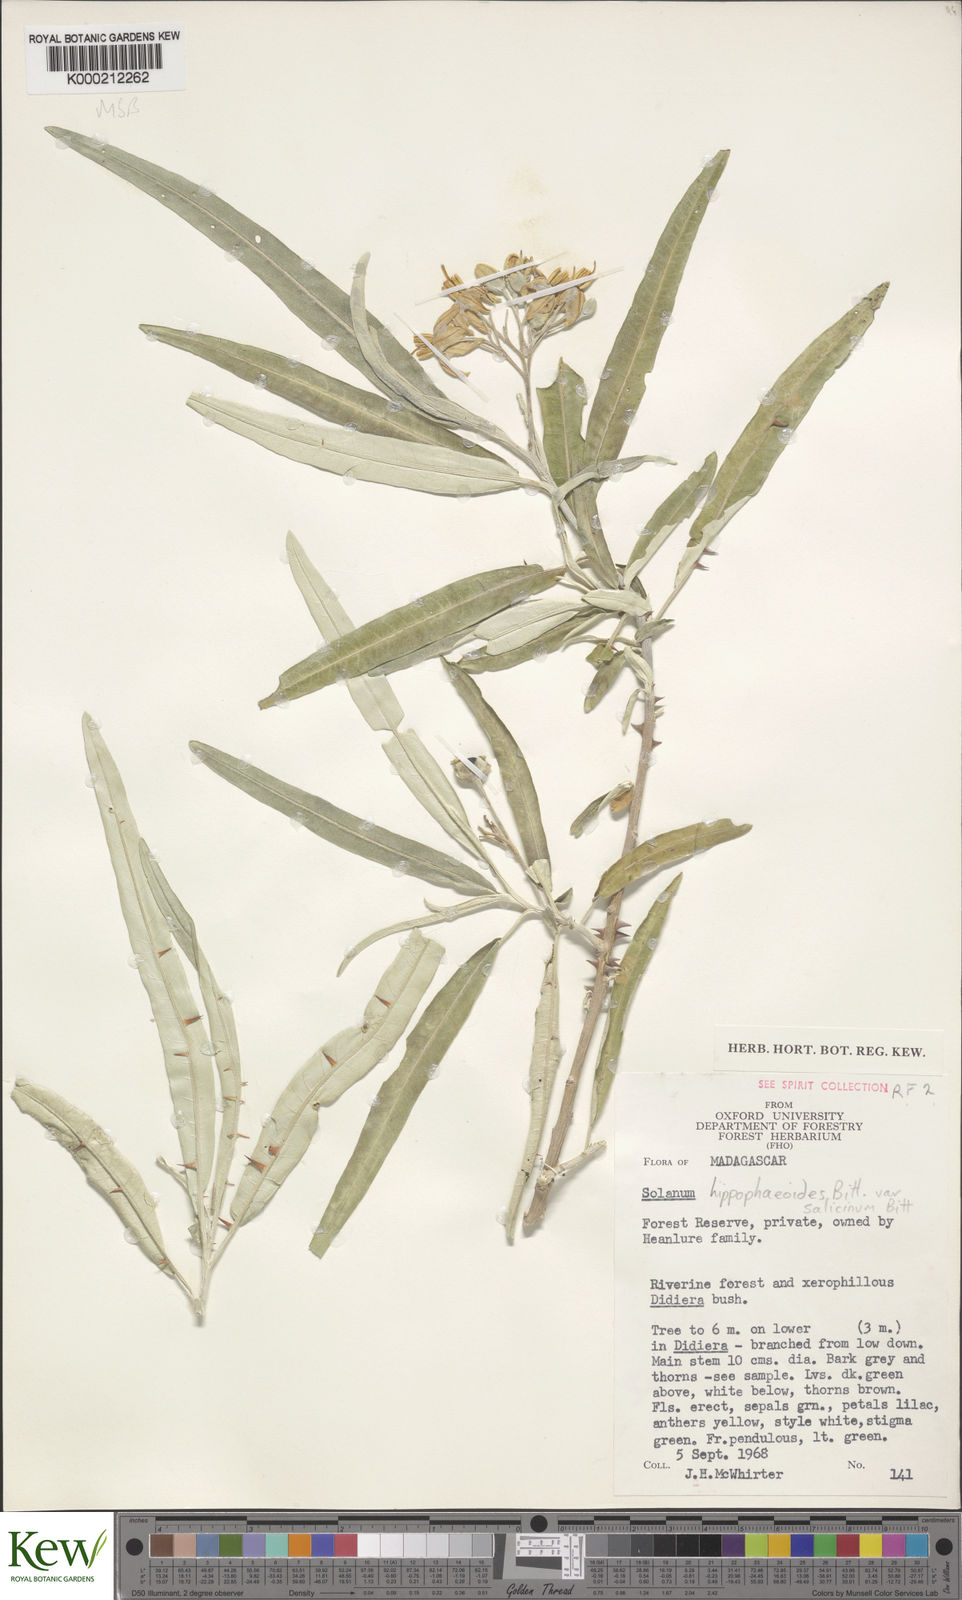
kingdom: Plantae
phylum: Tracheophyta
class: Magnoliopsida
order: Solanales
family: Solanaceae
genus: Solanum
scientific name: Solanum croatii
